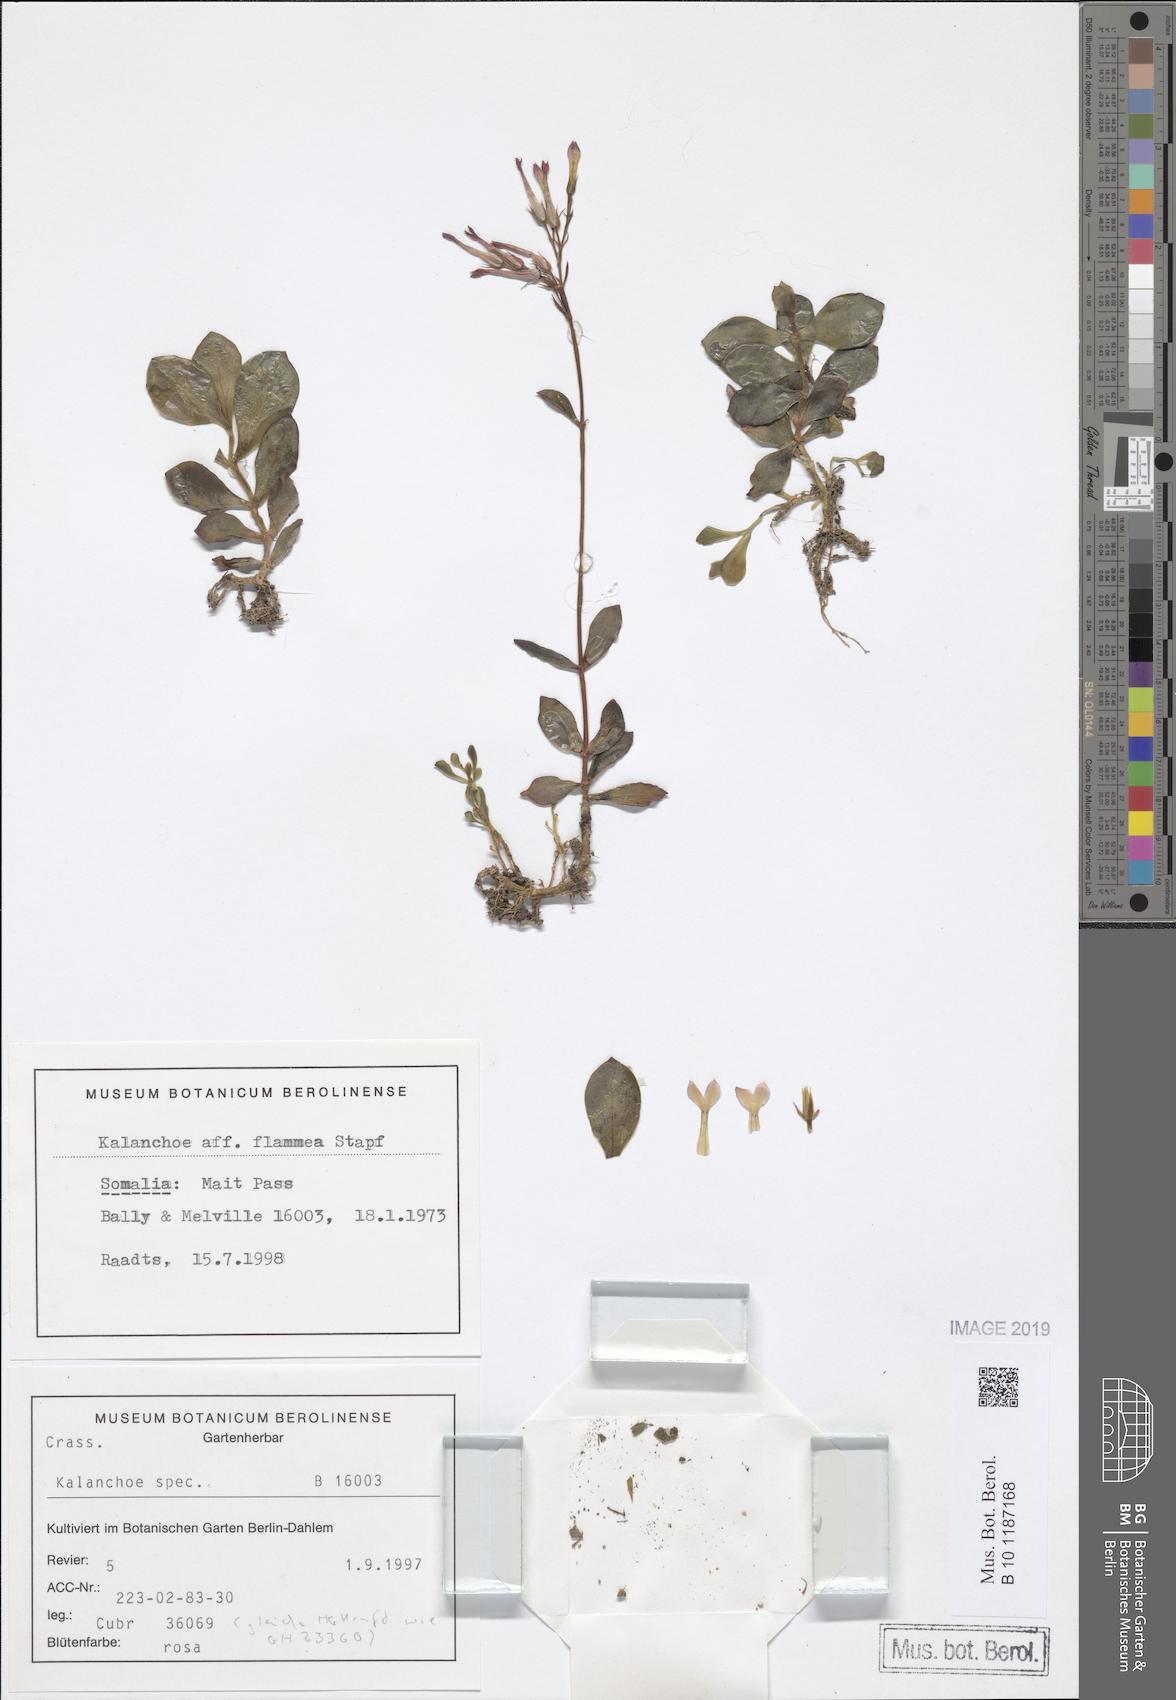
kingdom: Plantae
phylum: Tracheophyta
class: Magnoliopsida
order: Saxifragales
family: Crassulaceae
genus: Kalanchoe
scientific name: Kalanchoe glaucescens
